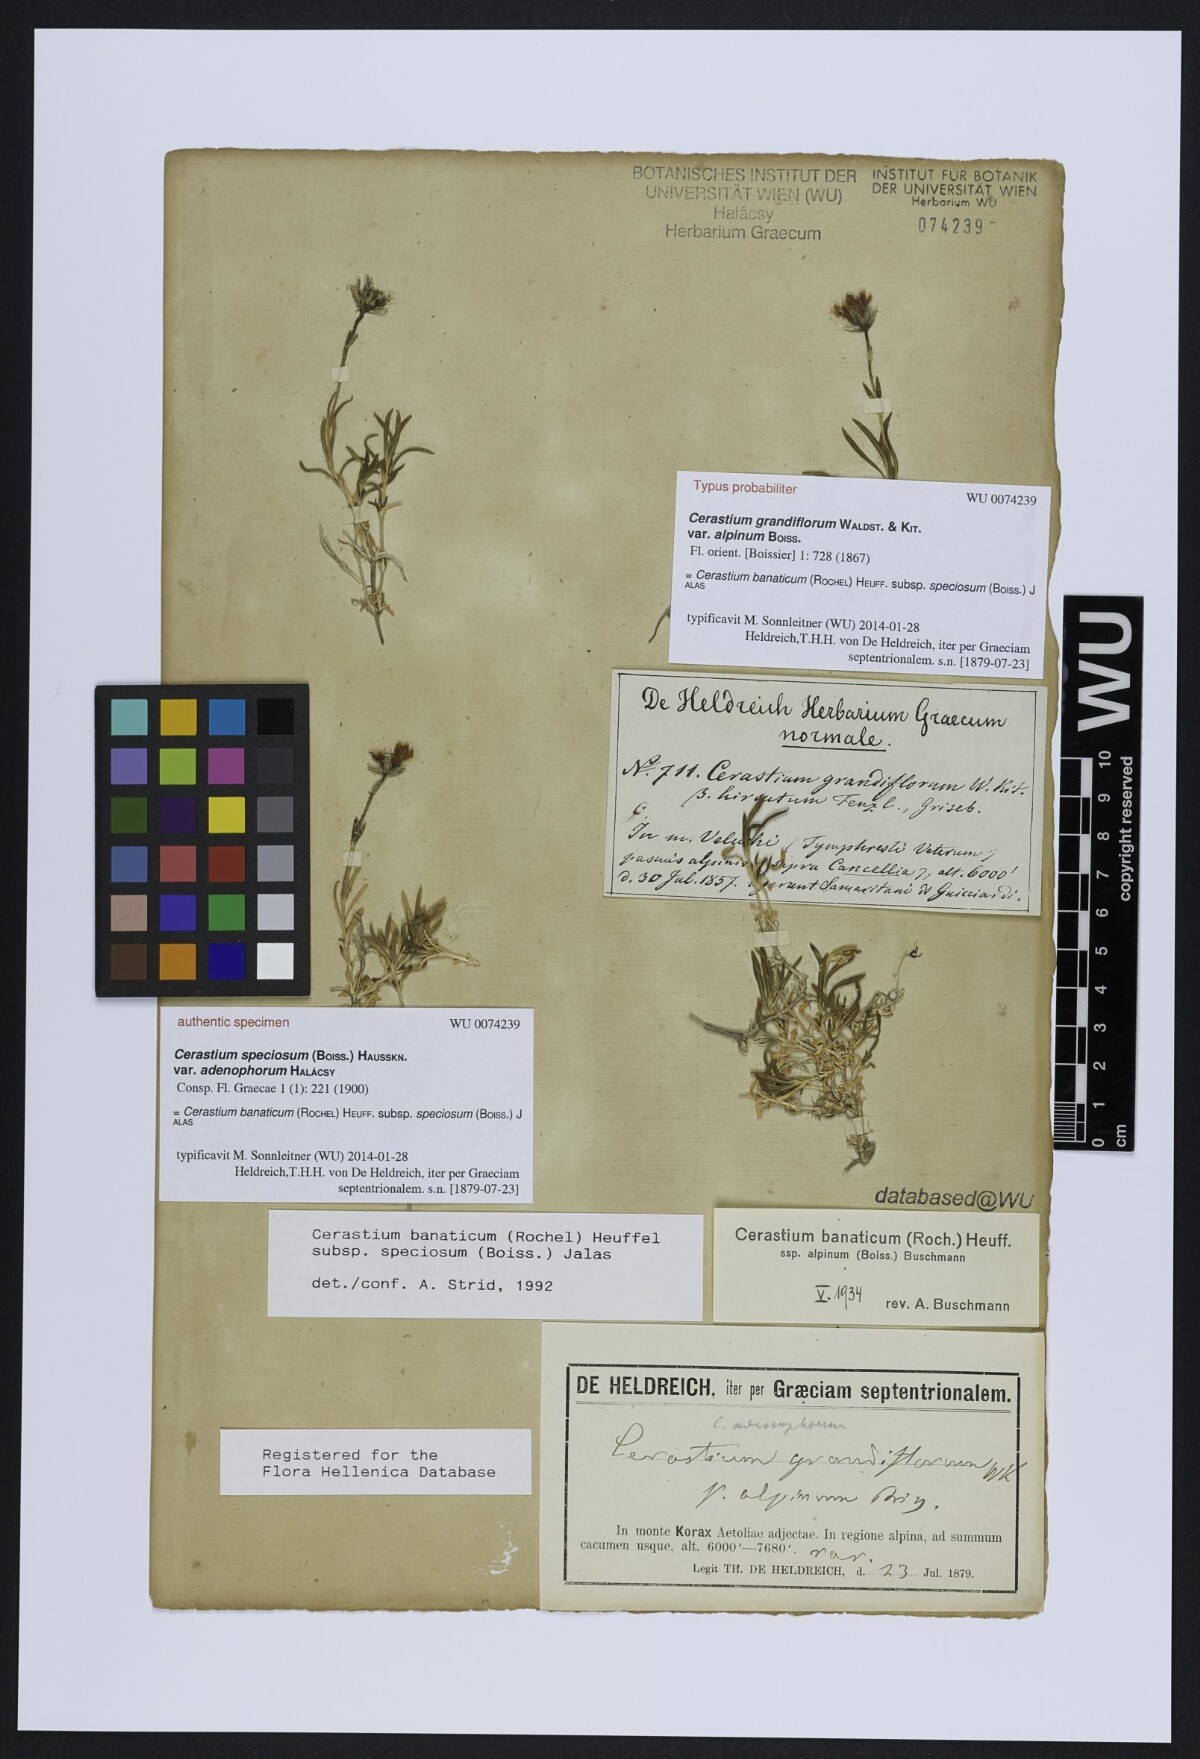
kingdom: Plantae
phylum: Tracheophyta
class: Magnoliopsida
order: Caryophyllales
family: Caryophyllaceae
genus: Cerastium
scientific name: Cerastium banaticum
